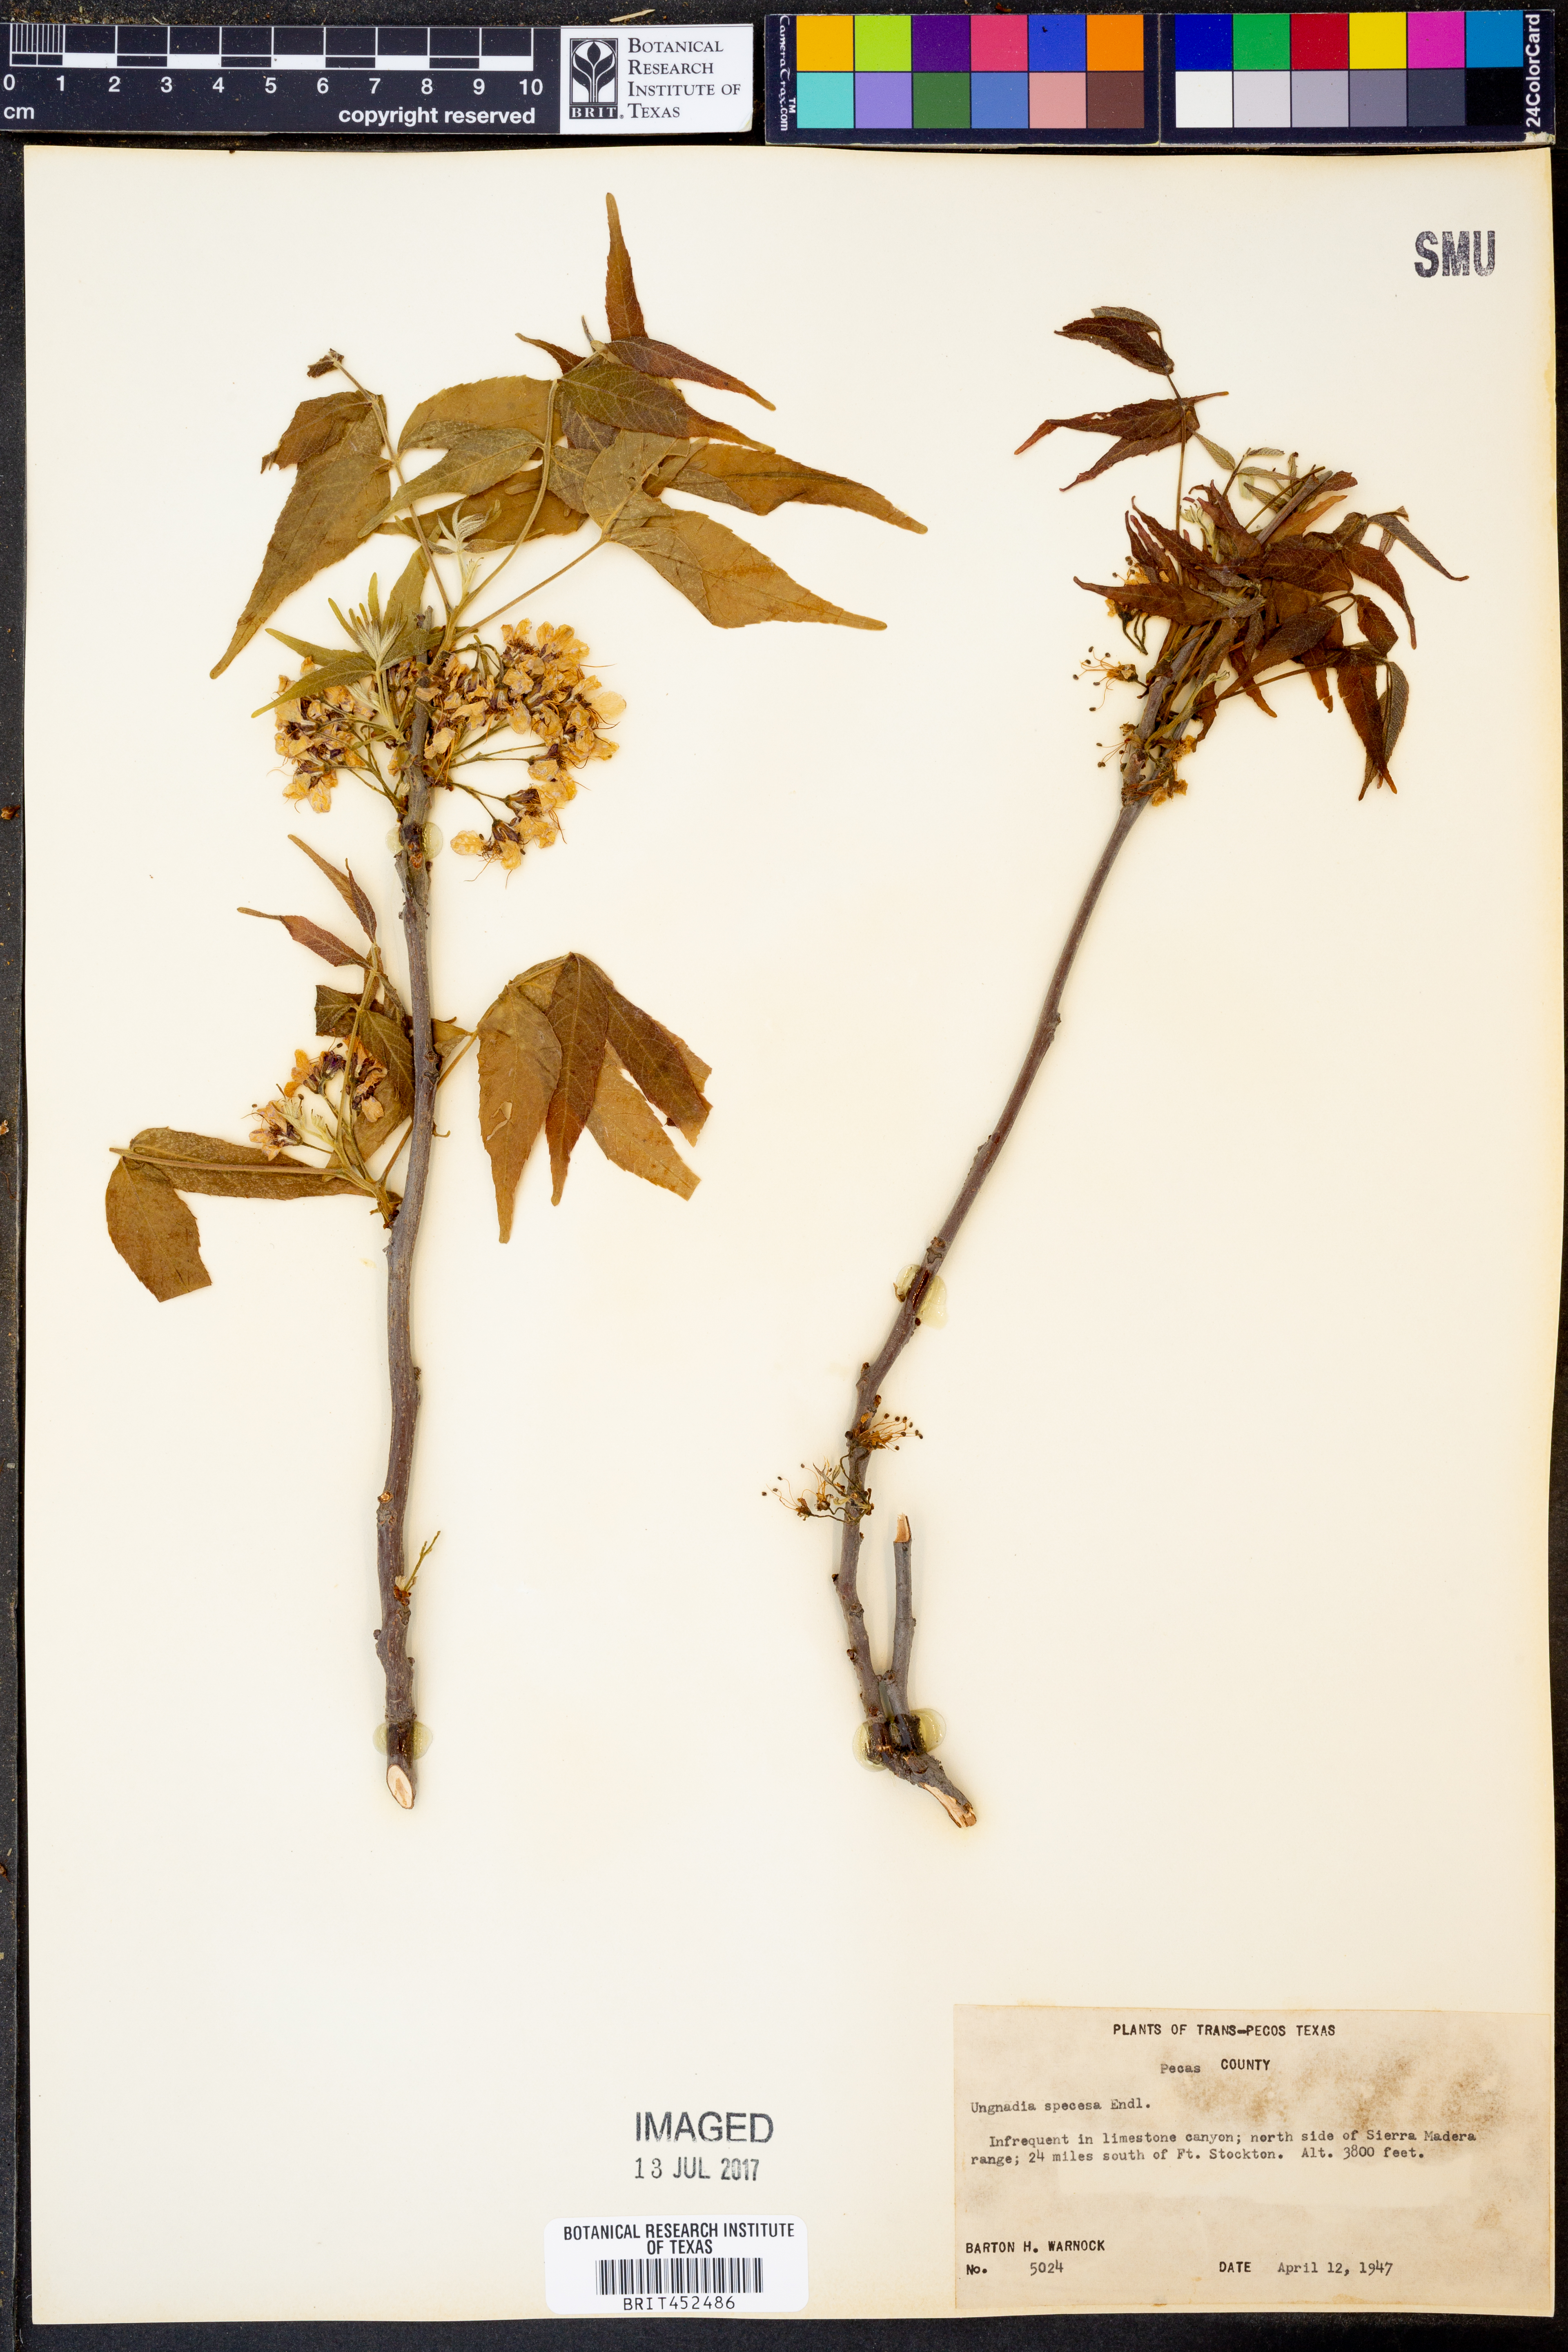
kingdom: Plantae
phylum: Tracheophyta
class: Magnoliopsida
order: Sapindales
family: Sapindaceae
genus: Ungnadia
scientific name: Ungnadia speciosa
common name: Texas-buckeye
